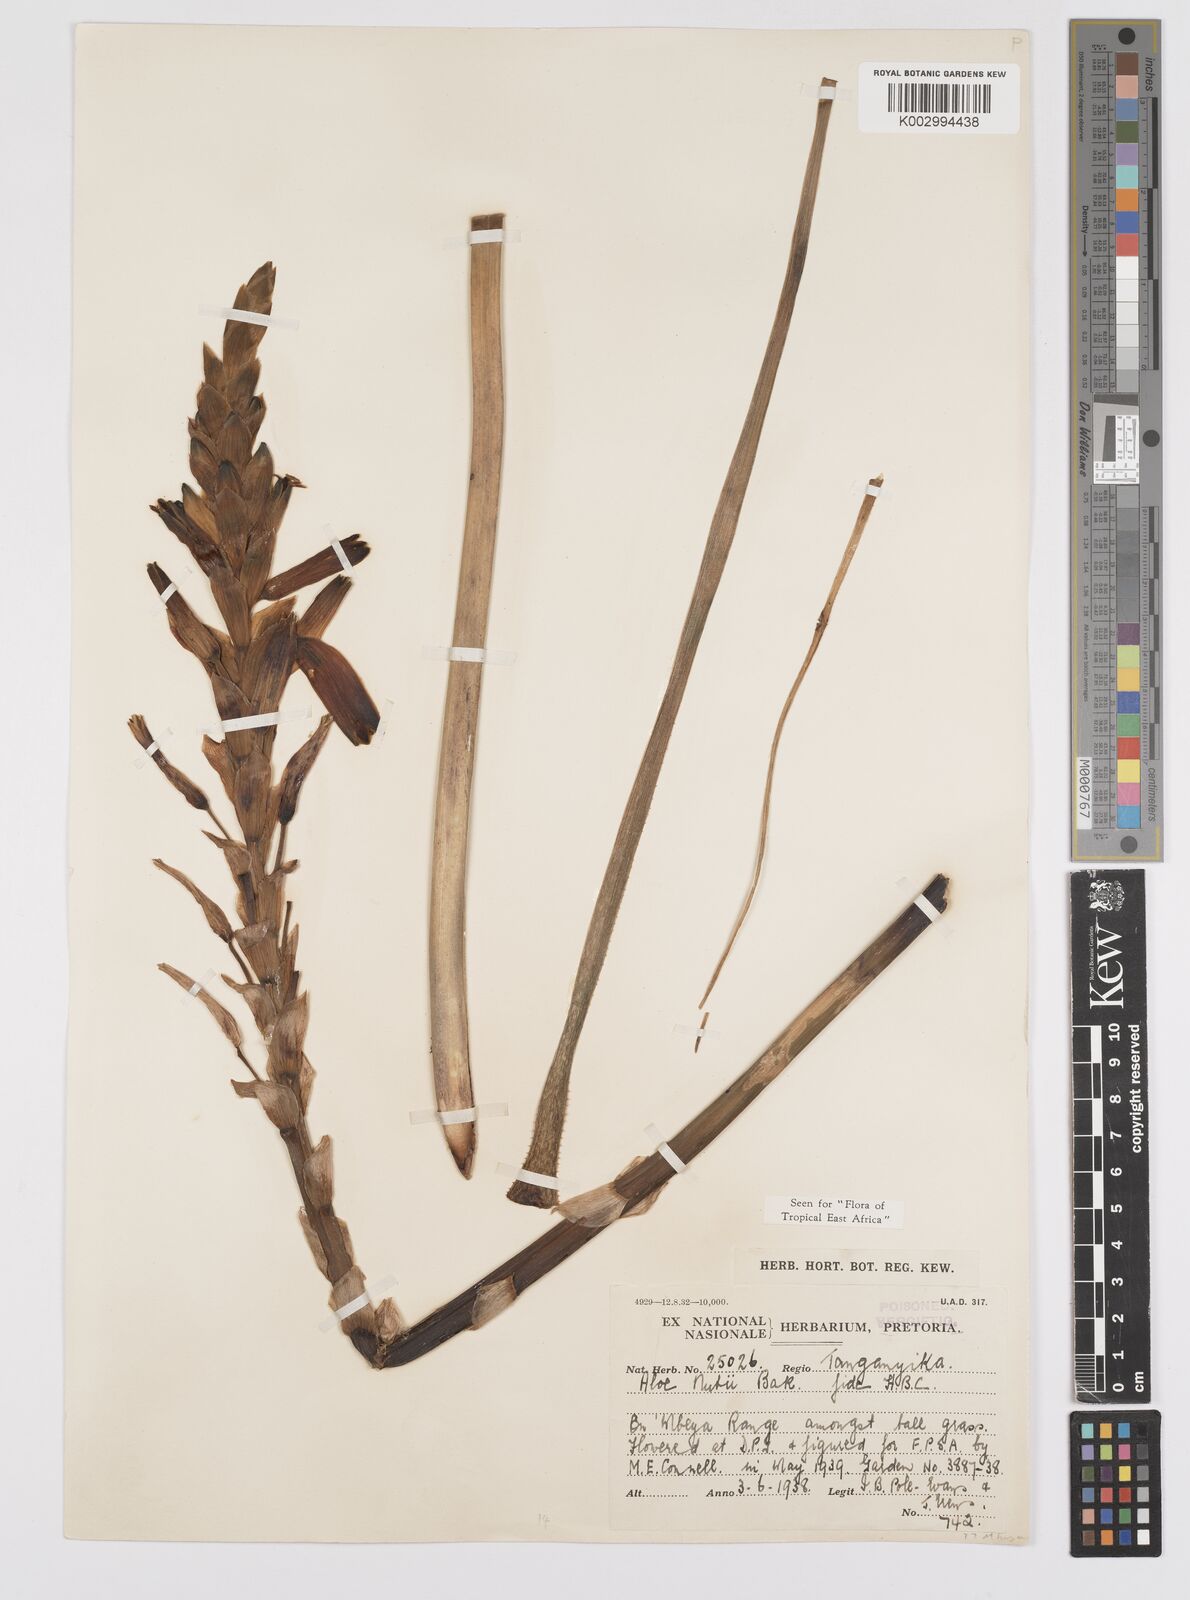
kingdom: Plantae
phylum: Tracheophyta
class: Liliopsida
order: Asparagales
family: Asphodelaceae
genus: Aloe
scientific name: Aloe nuttii
